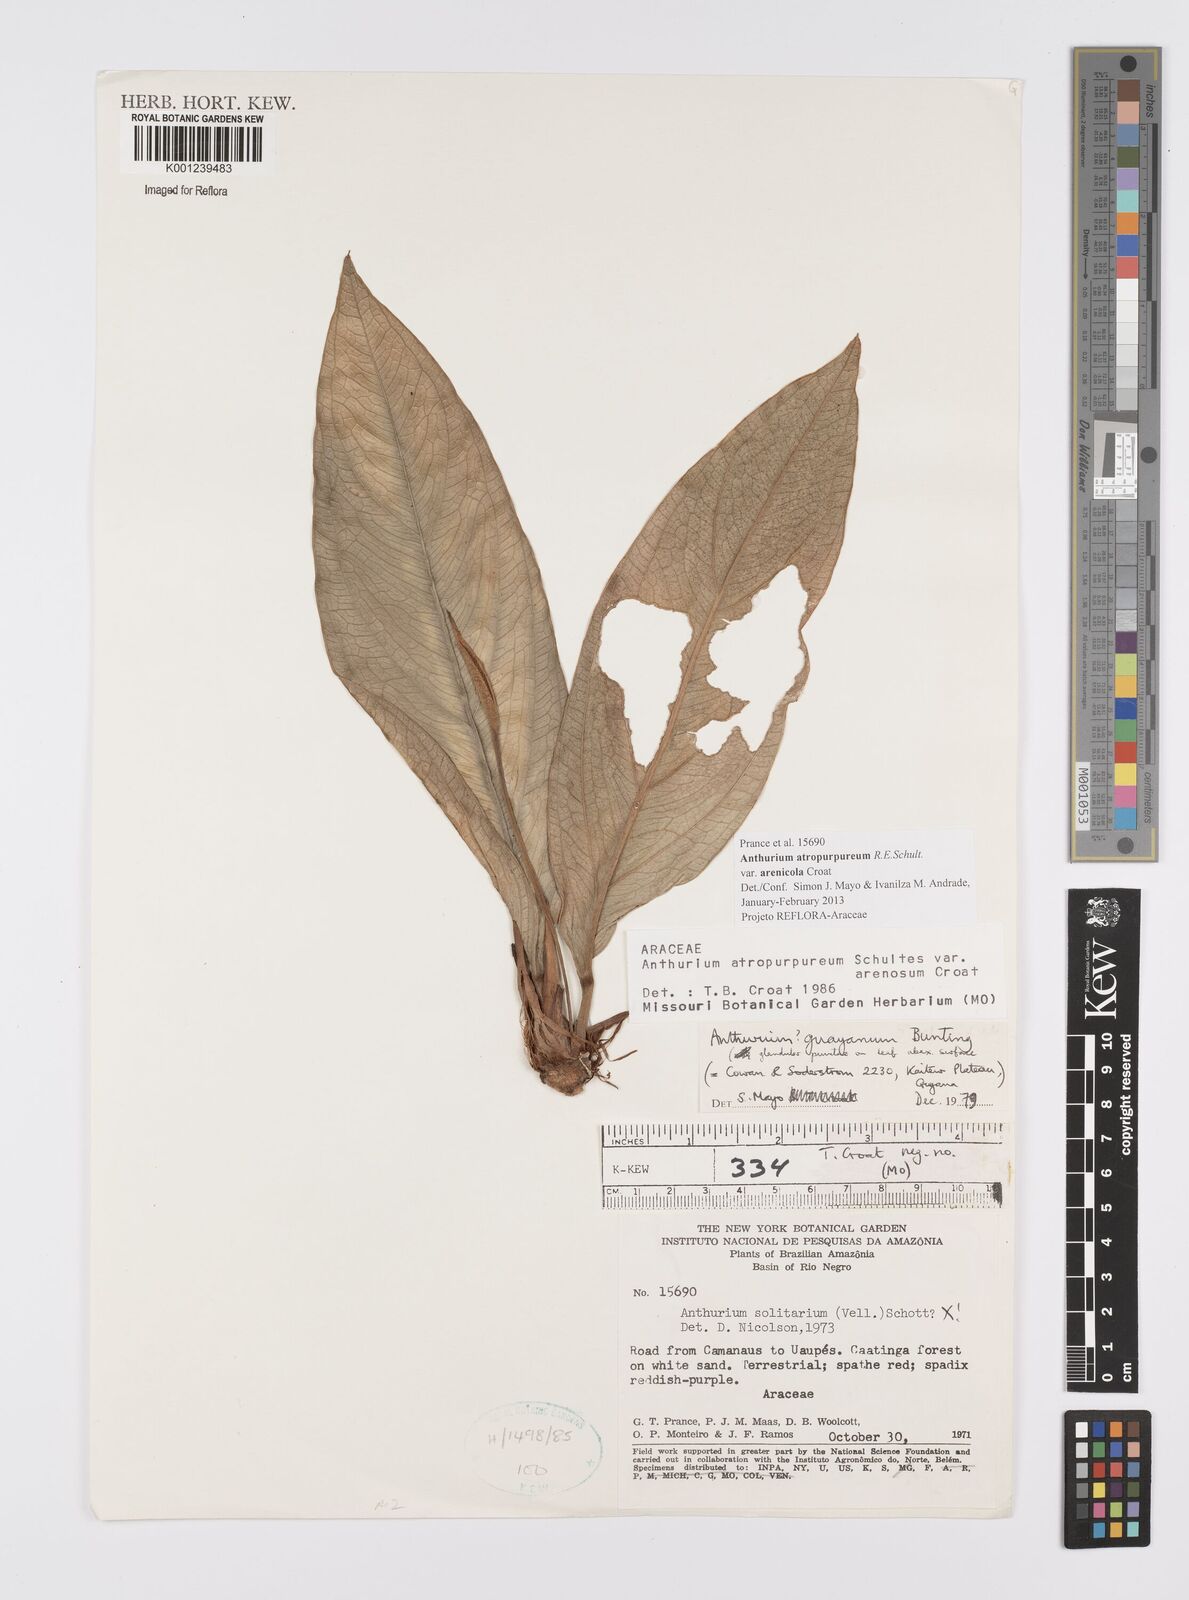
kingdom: Plantae
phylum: Tracheophyta
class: Liliopsida
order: Alismatales
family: Araceae
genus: Anthurium
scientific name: Anthurium atropurpureum
